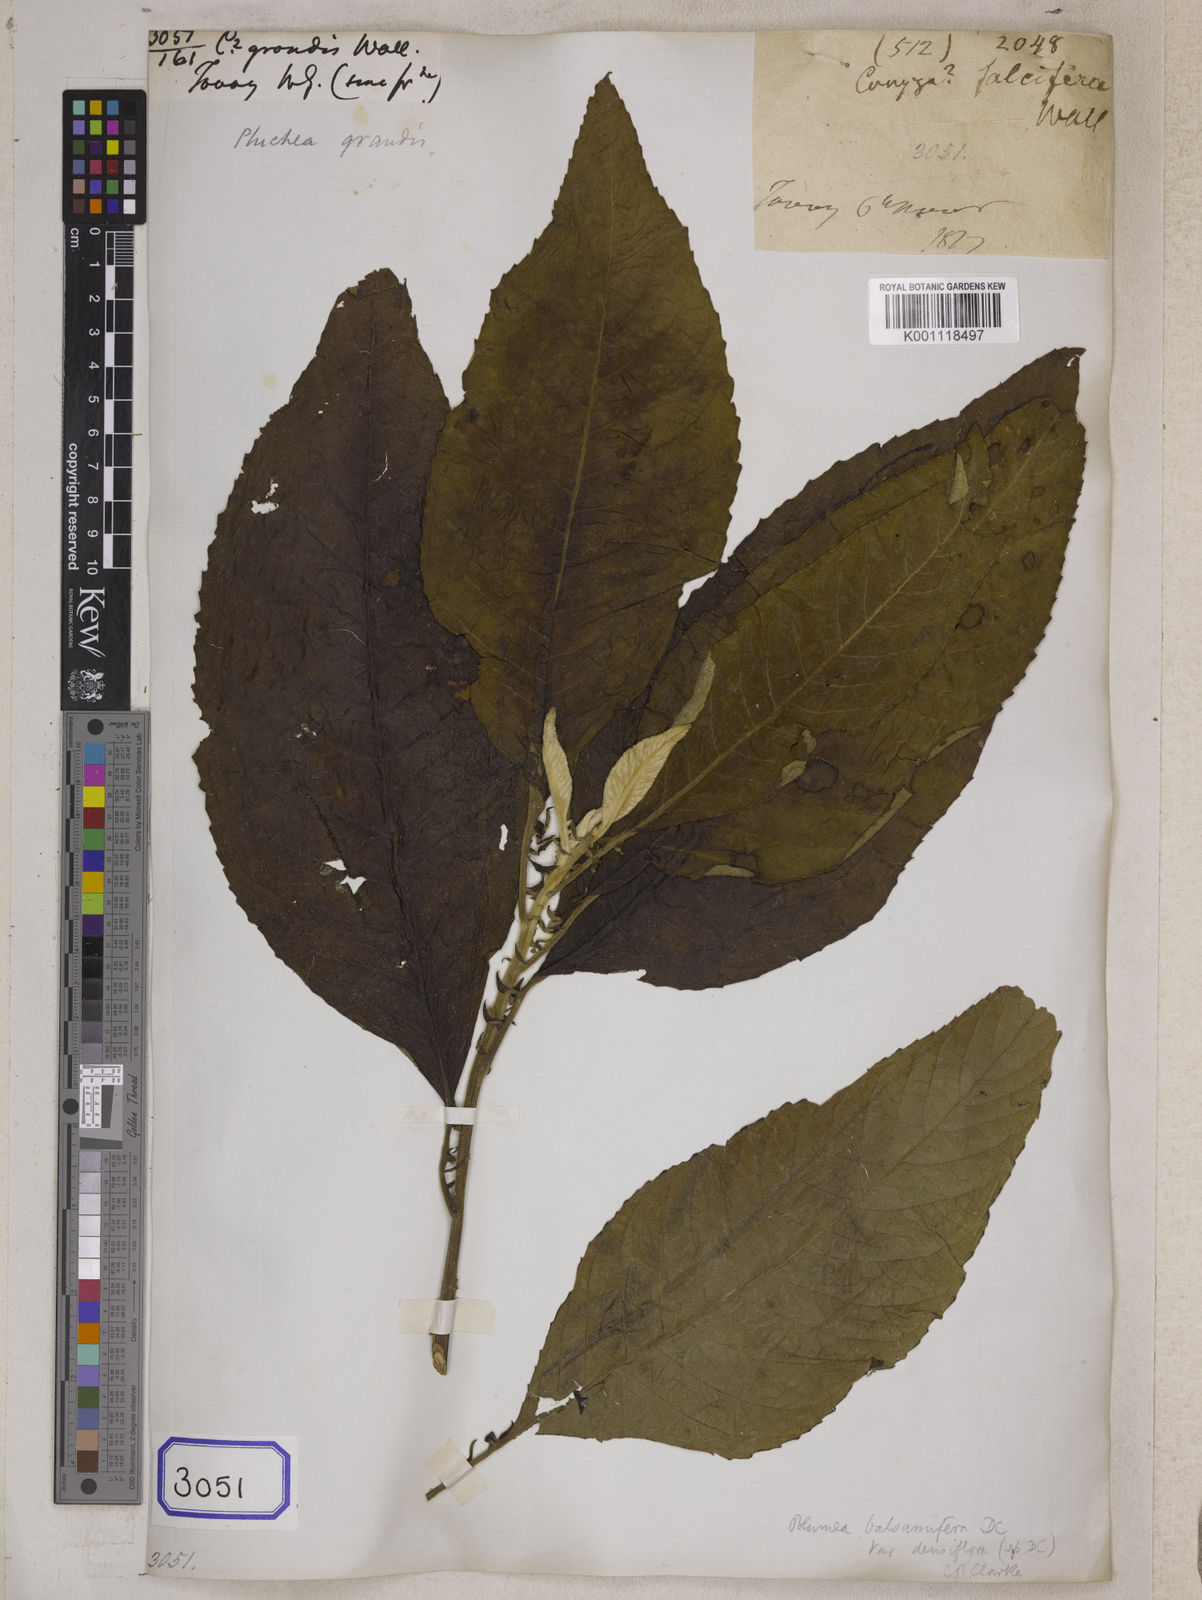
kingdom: Plantae
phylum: Tracheophyta
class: Magnoliopsida
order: Asterales
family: Asteraceae
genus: Blumea
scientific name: Blumea balsamifera
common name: Ngai camphor
